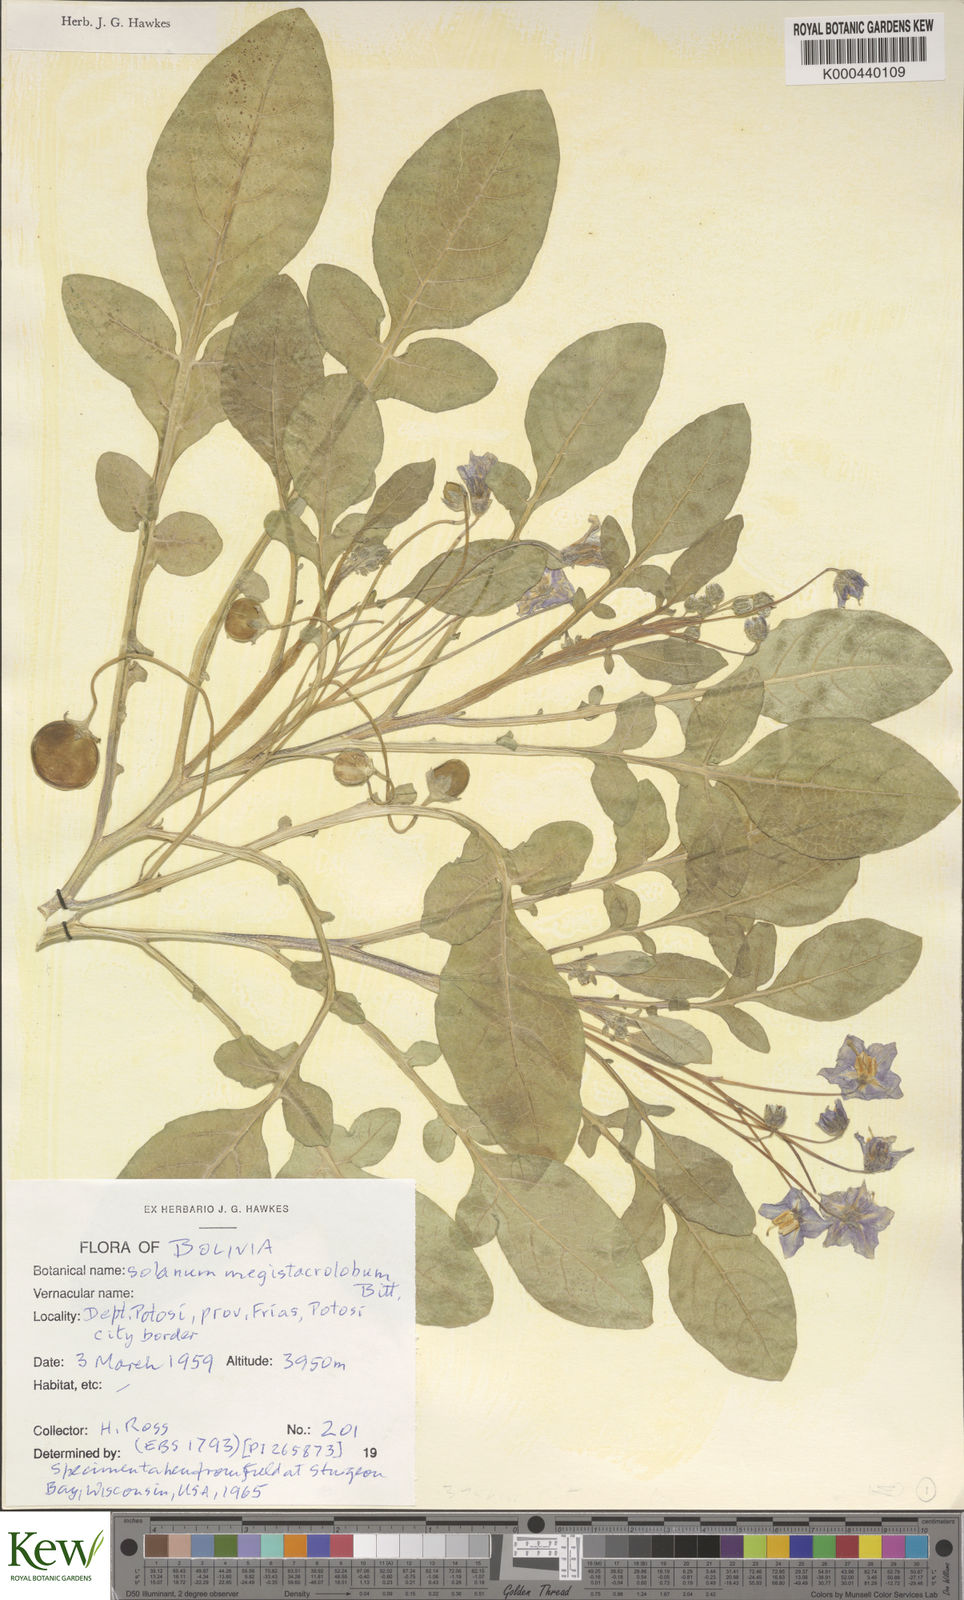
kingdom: Plantae
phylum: Tracheophyta
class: Magnoliopsida
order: Solanales
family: Solanaceae
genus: Solanum
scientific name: Solanum boliviense
